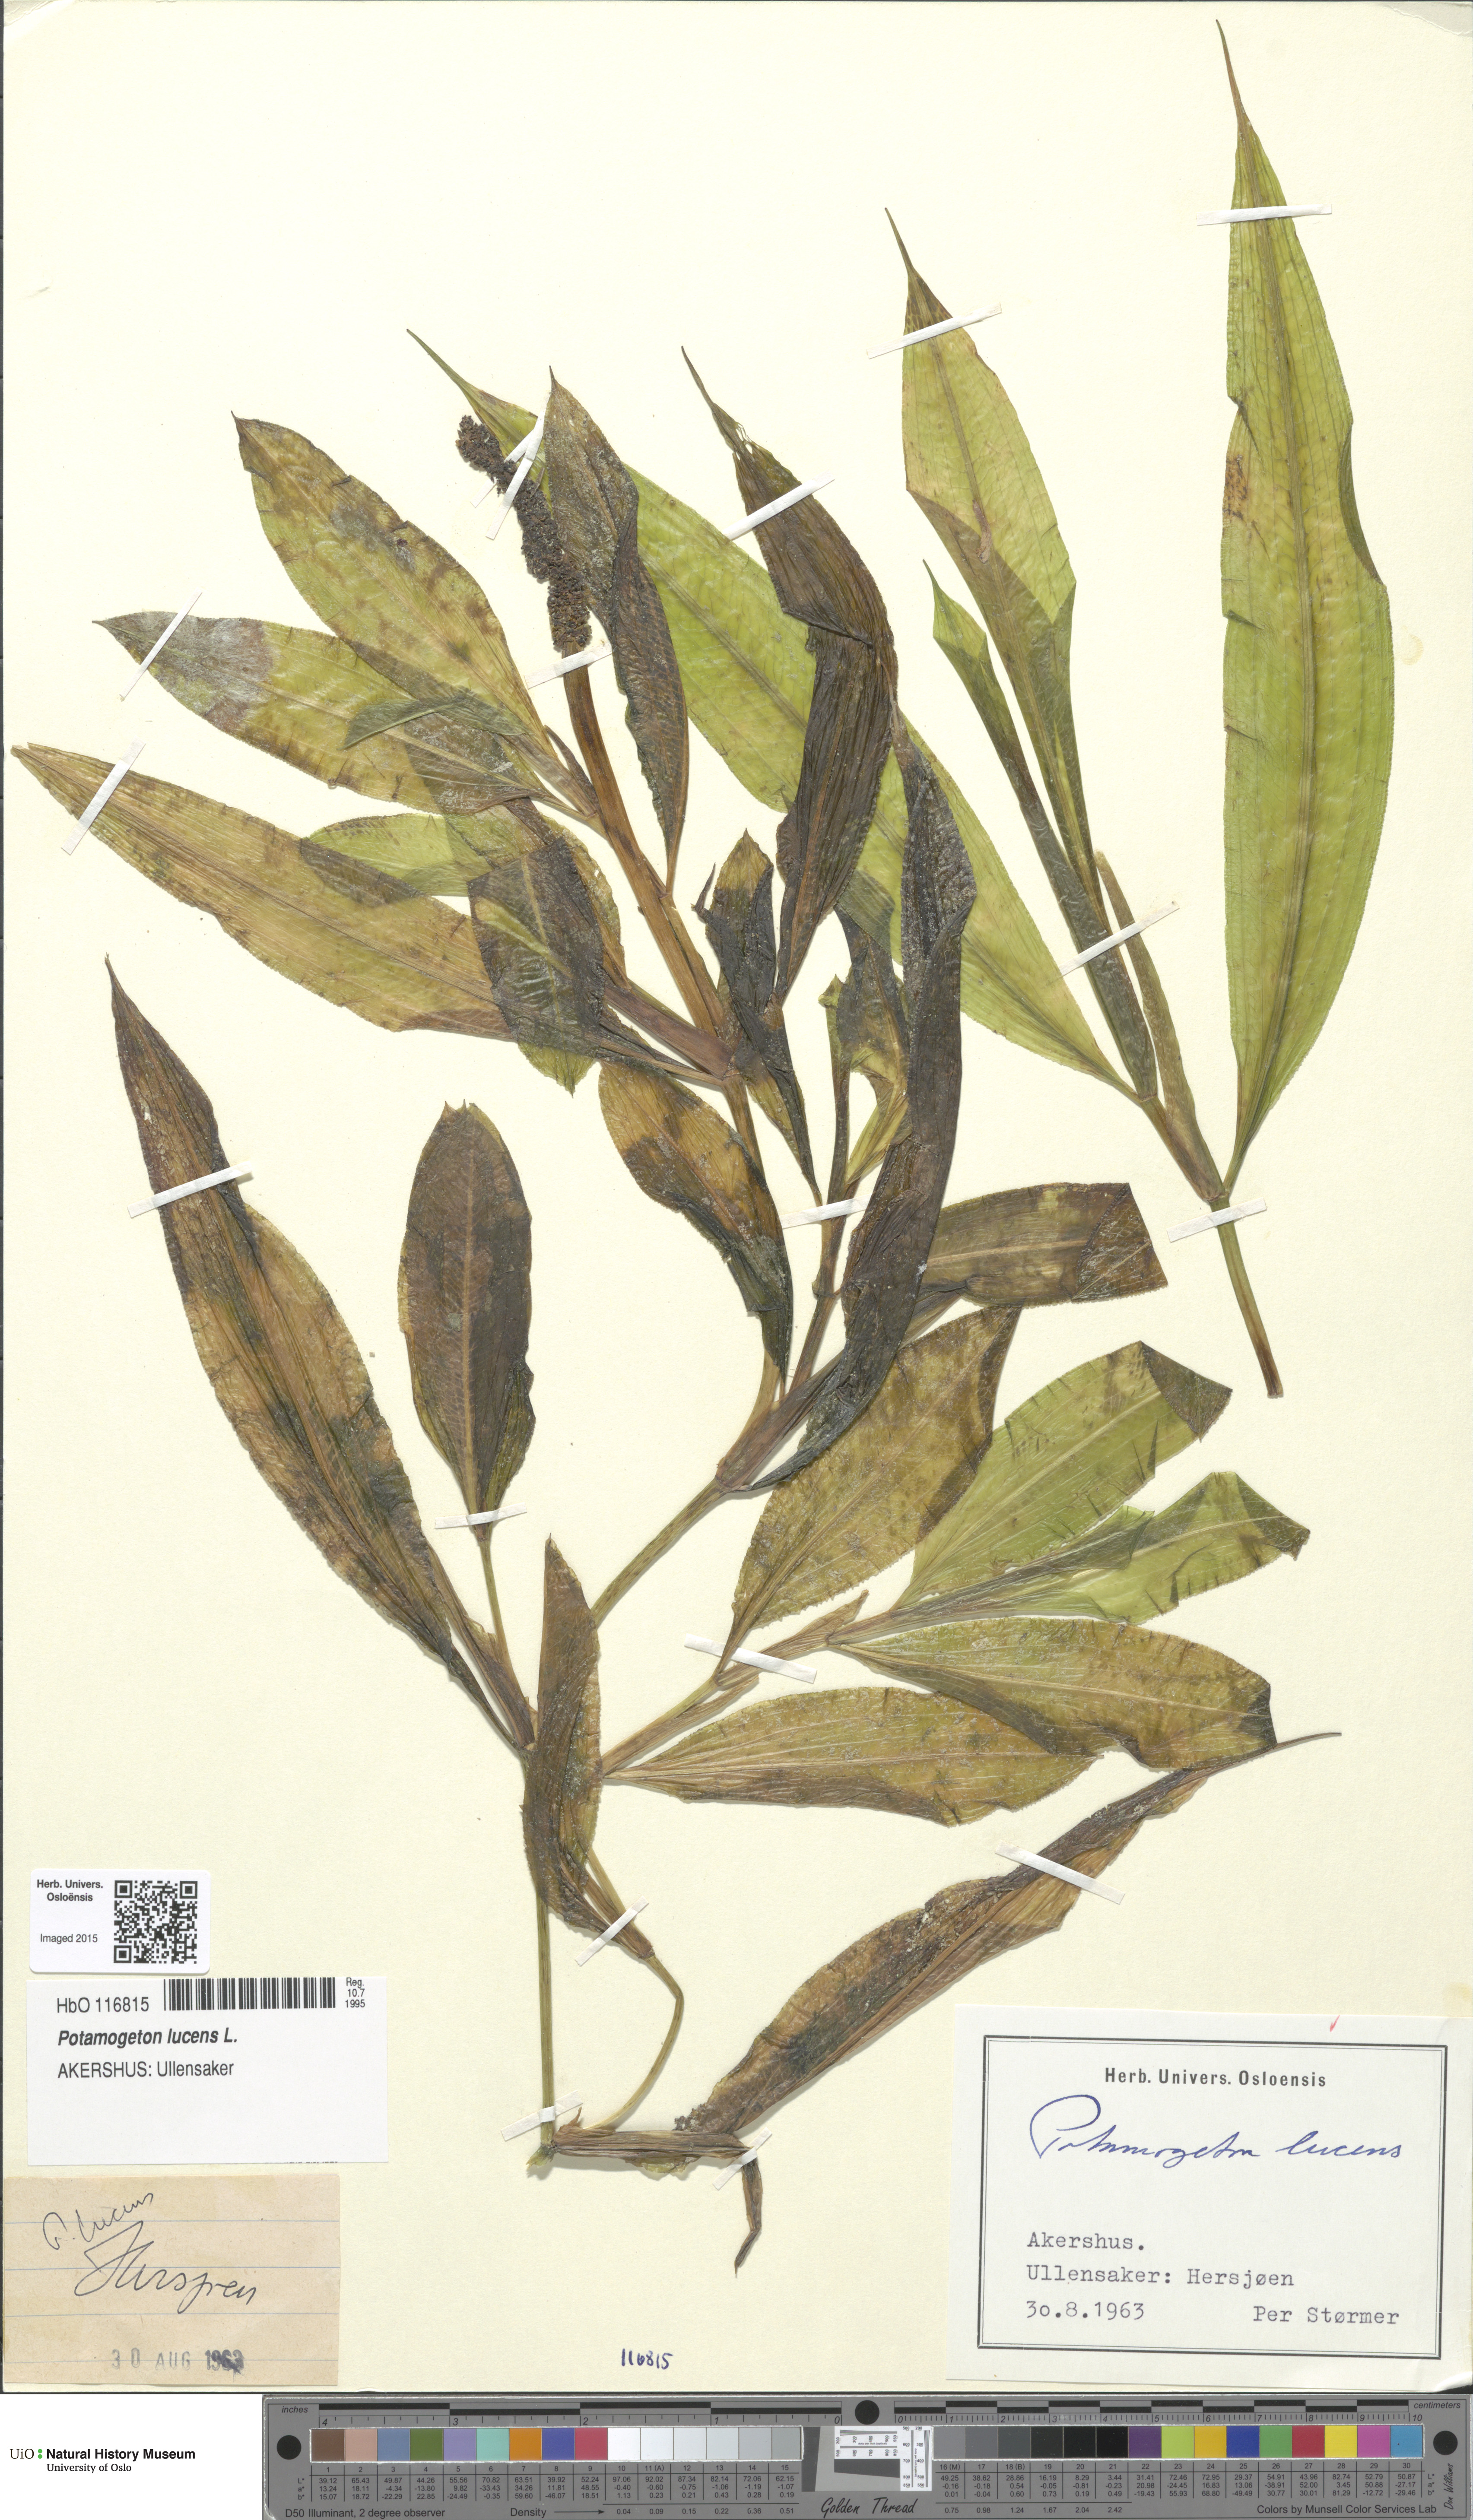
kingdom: Plantae
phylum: Tracheophyta
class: Liliopsida
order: Alismatales
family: Potamogetonaceae
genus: Potamogeton
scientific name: Potamogeton lucens
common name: Shining pondweed
